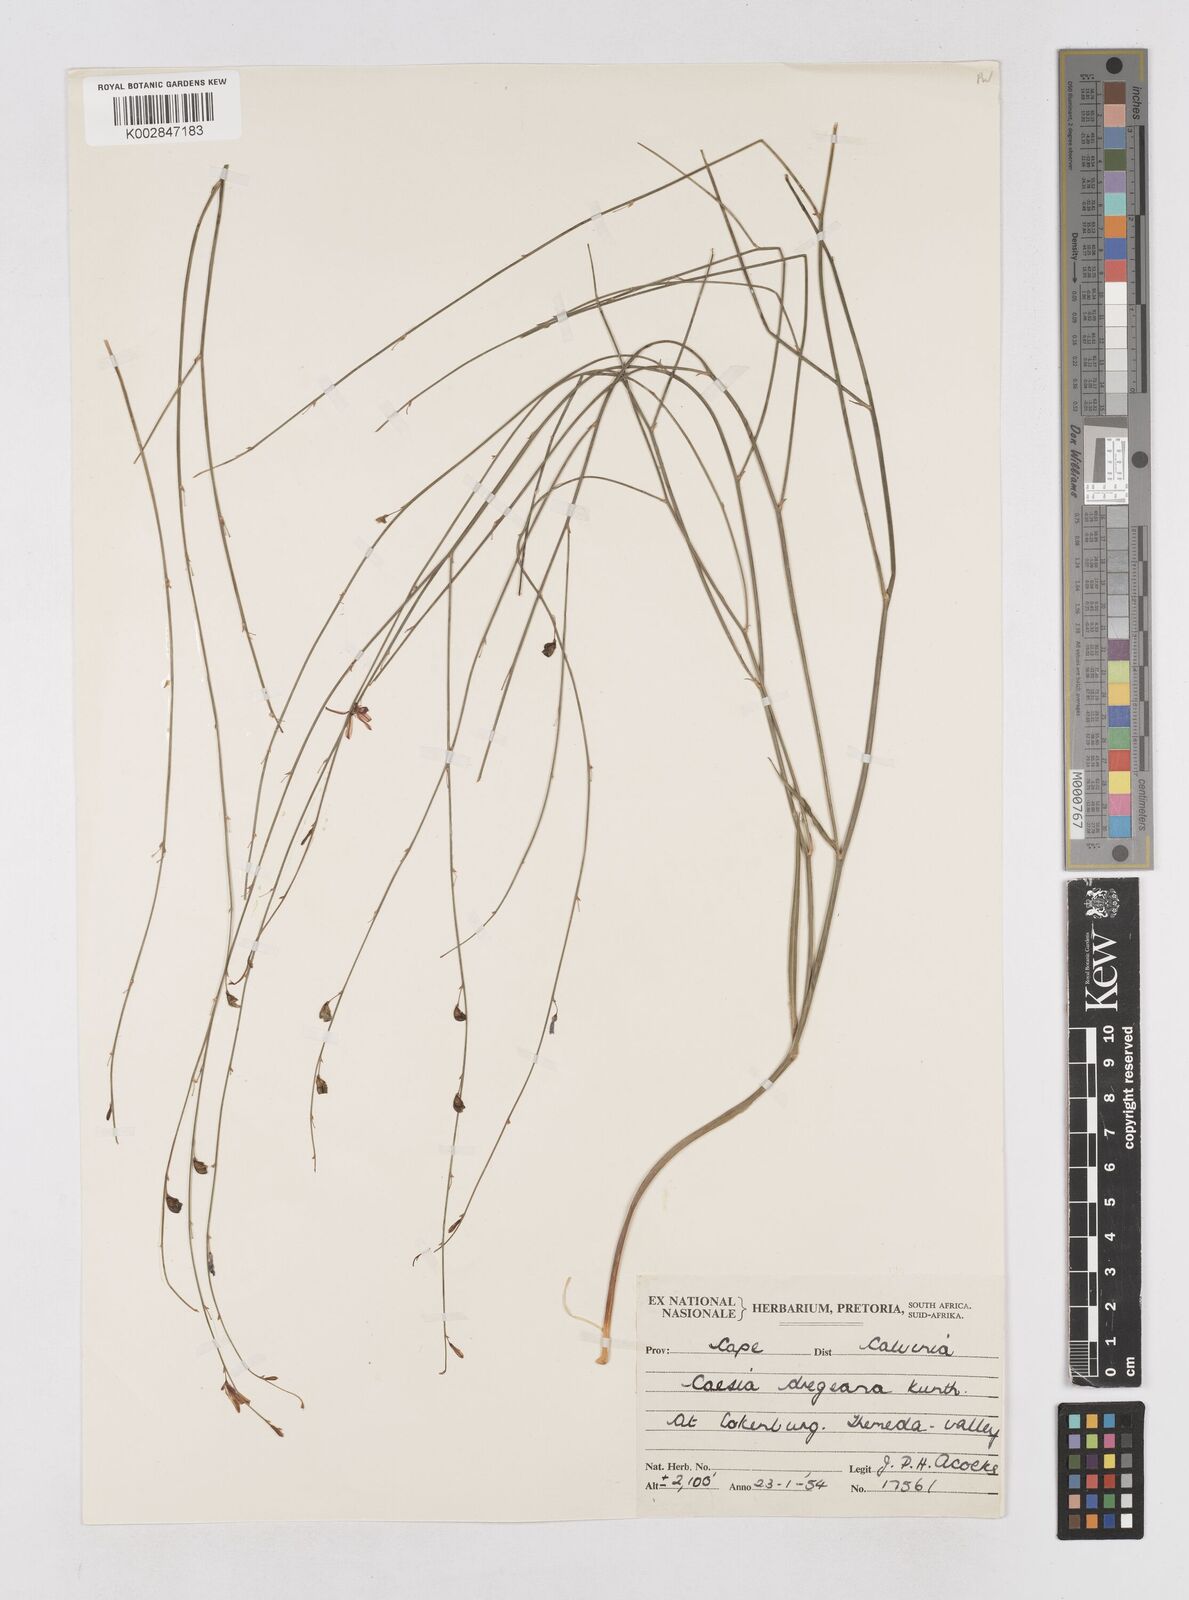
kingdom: Plantae
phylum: Tracheophyta
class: Liliopsida
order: Asparagales
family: Asphodelaceae
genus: Caesia
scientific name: Caesia contorta
